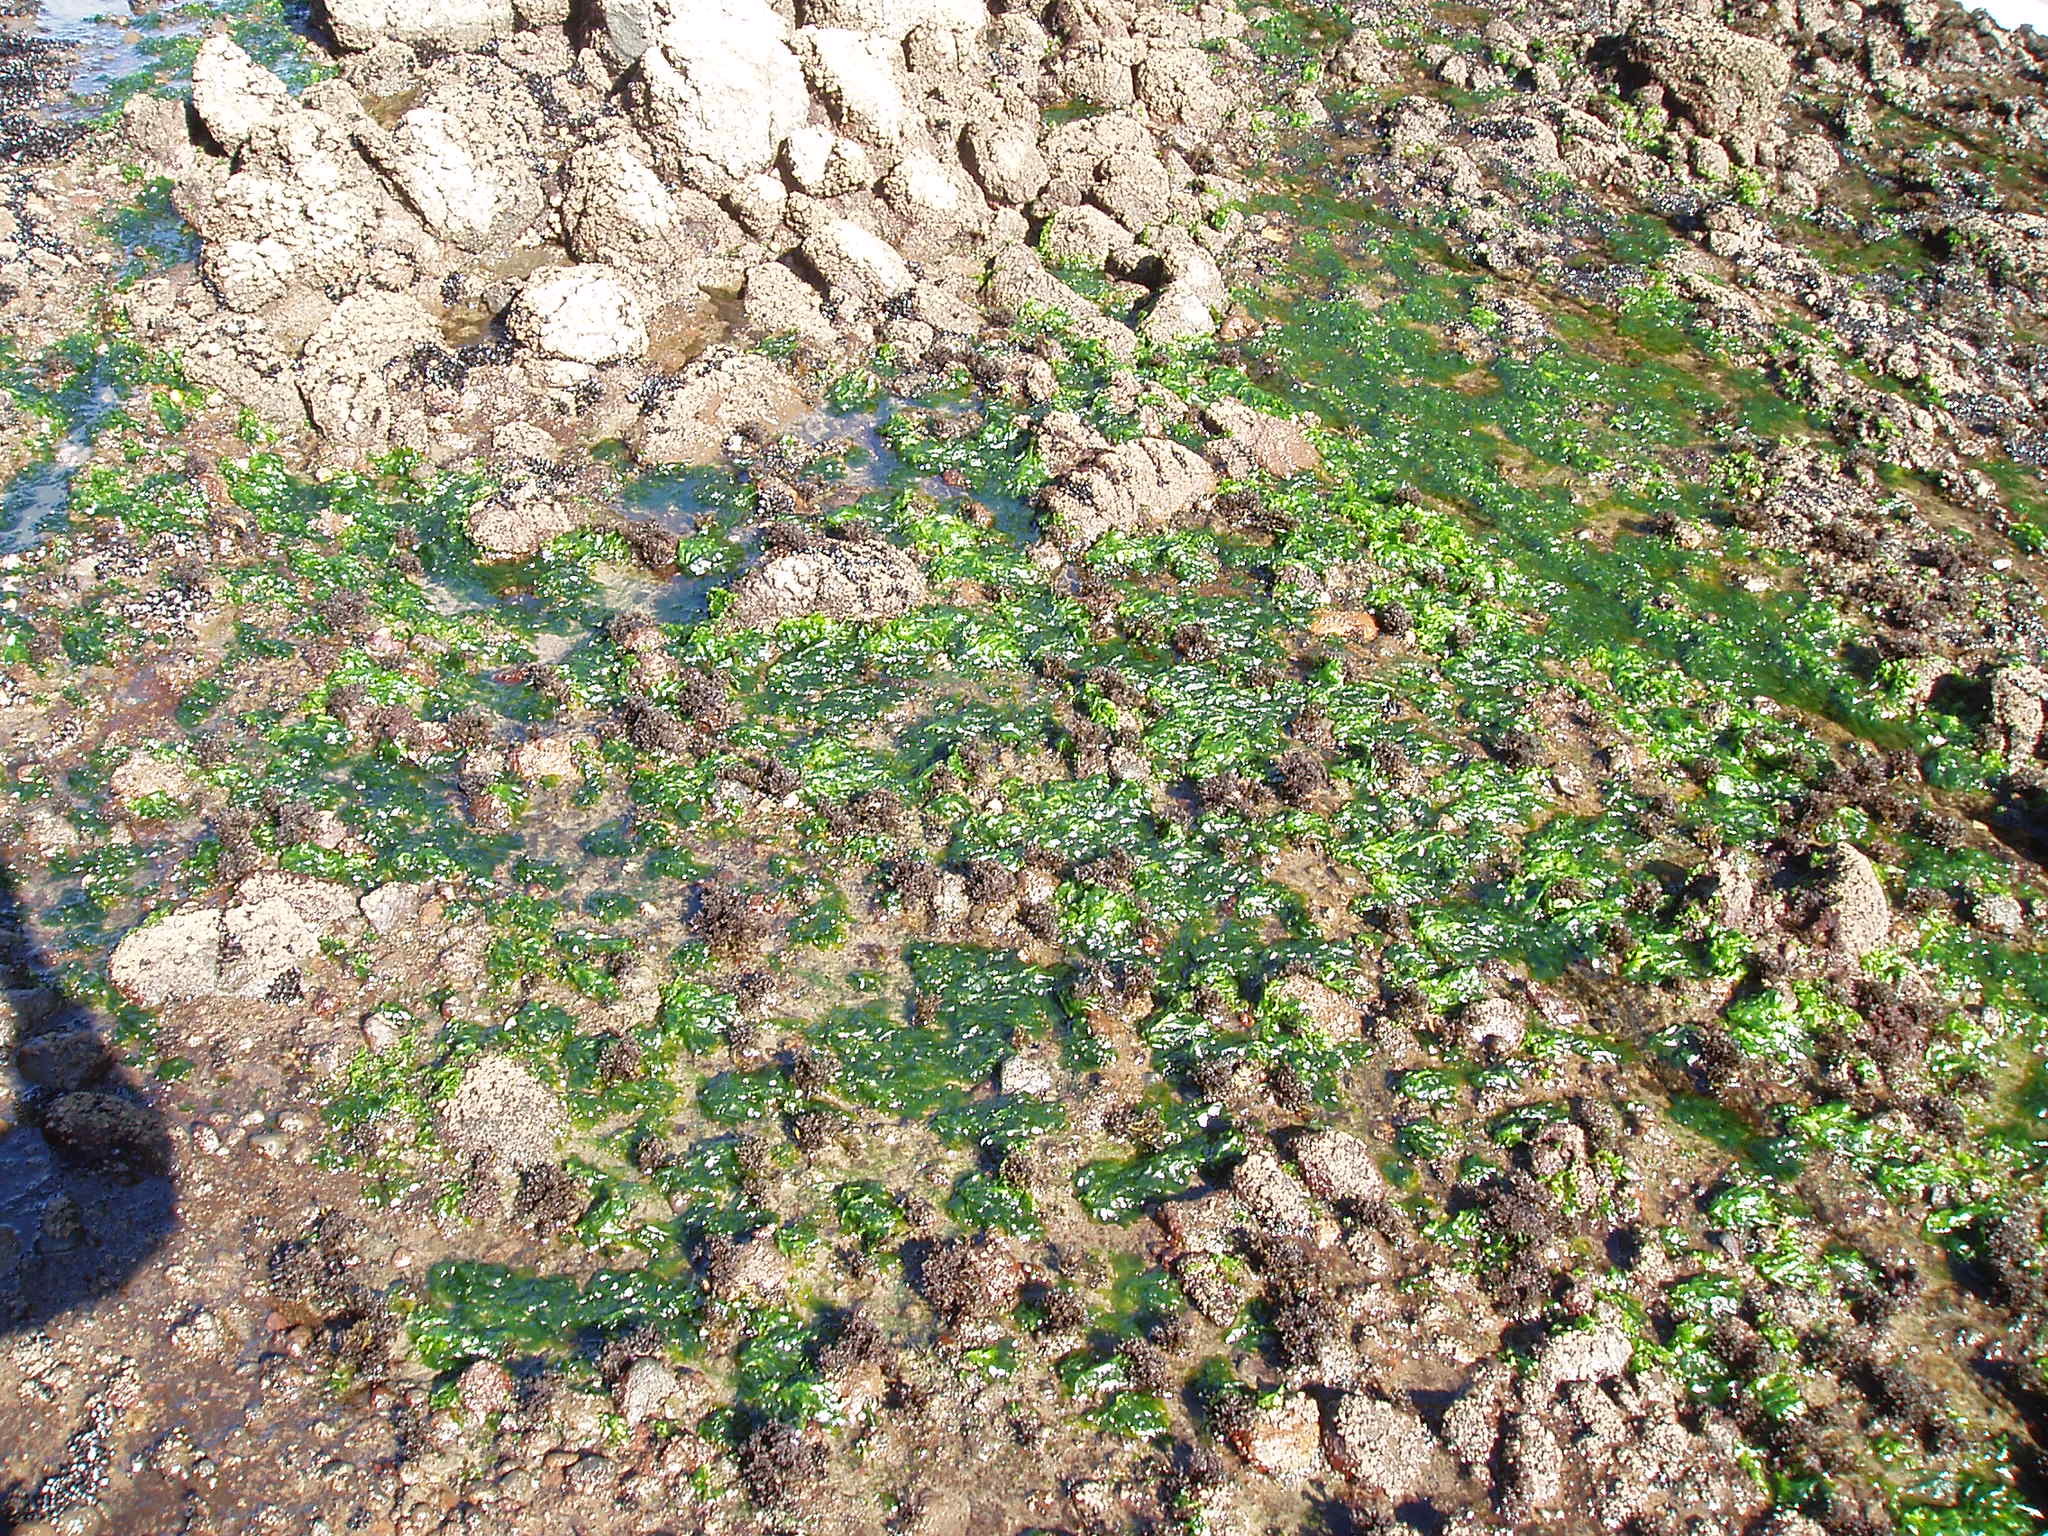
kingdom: Plantae
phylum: Chlorophyta
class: Ulvophyceae
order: Ulvales
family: Ulvaceae
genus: Ulva
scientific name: Ulva spec
